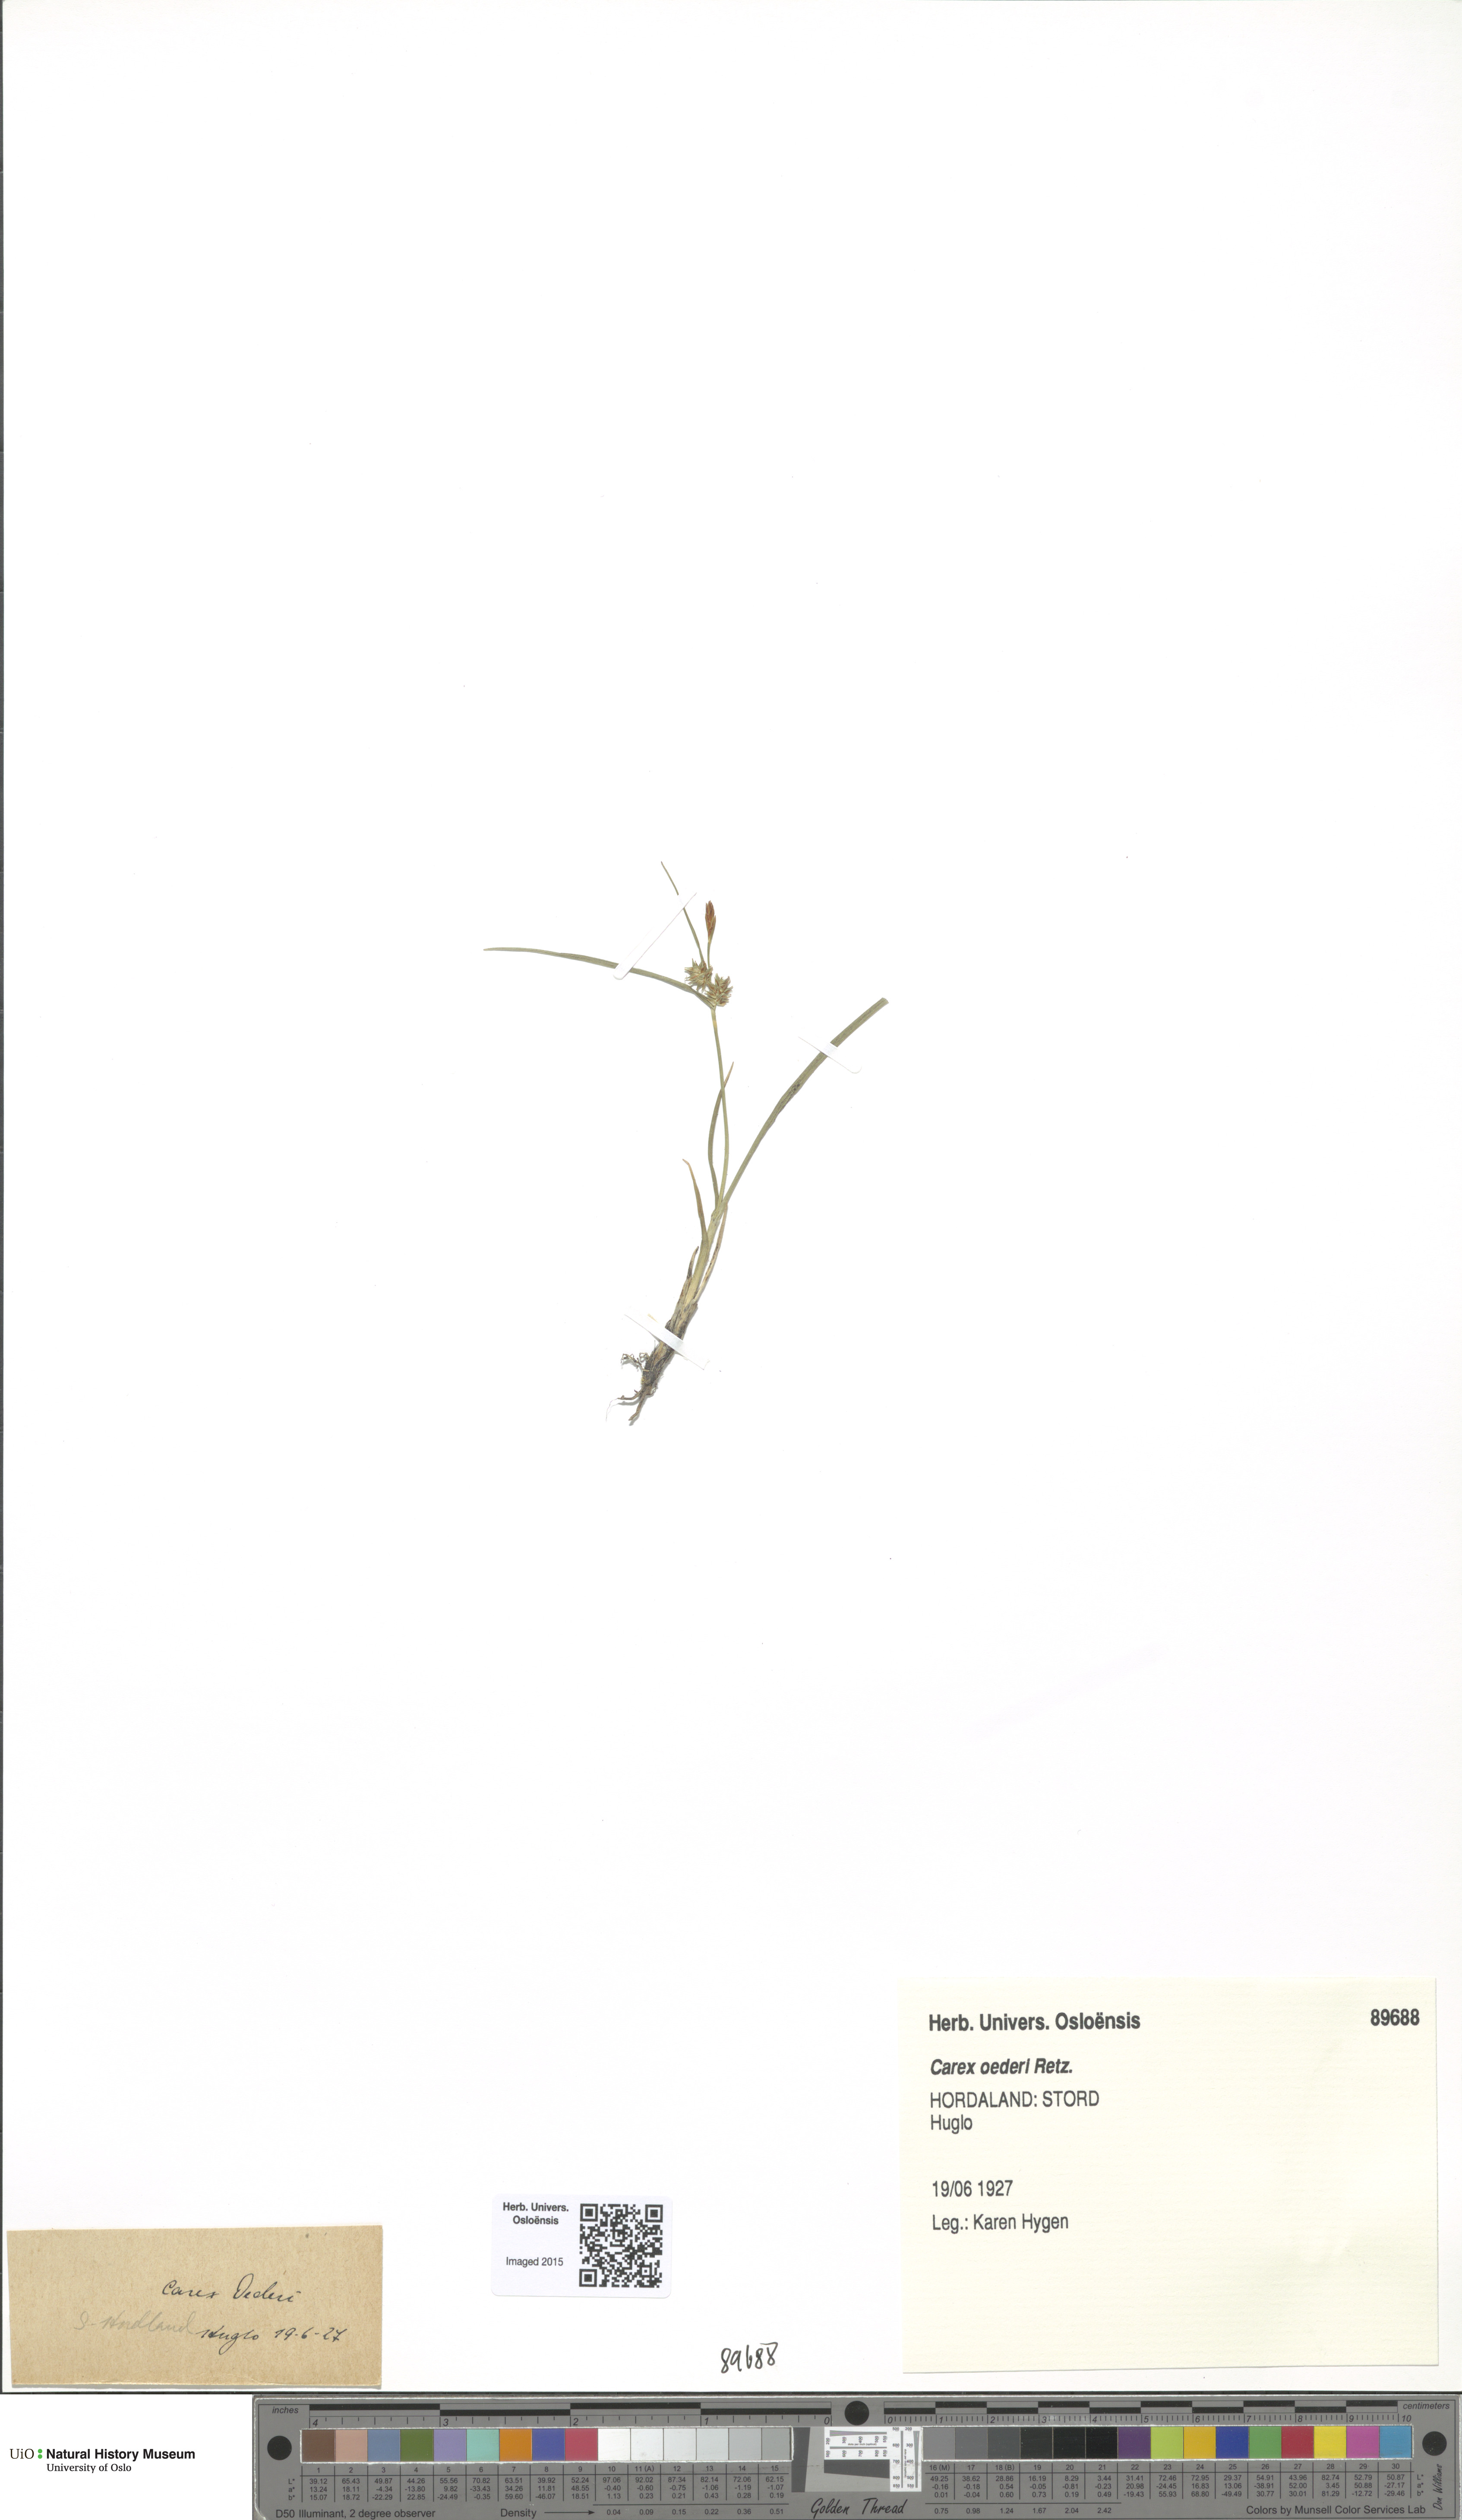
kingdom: Plantae
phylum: Tracheophyta
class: Liliopsida
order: Poales
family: Cyperaceae
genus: Carex
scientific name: Carex oederi
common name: Common & small-fruited yellow-sedge
